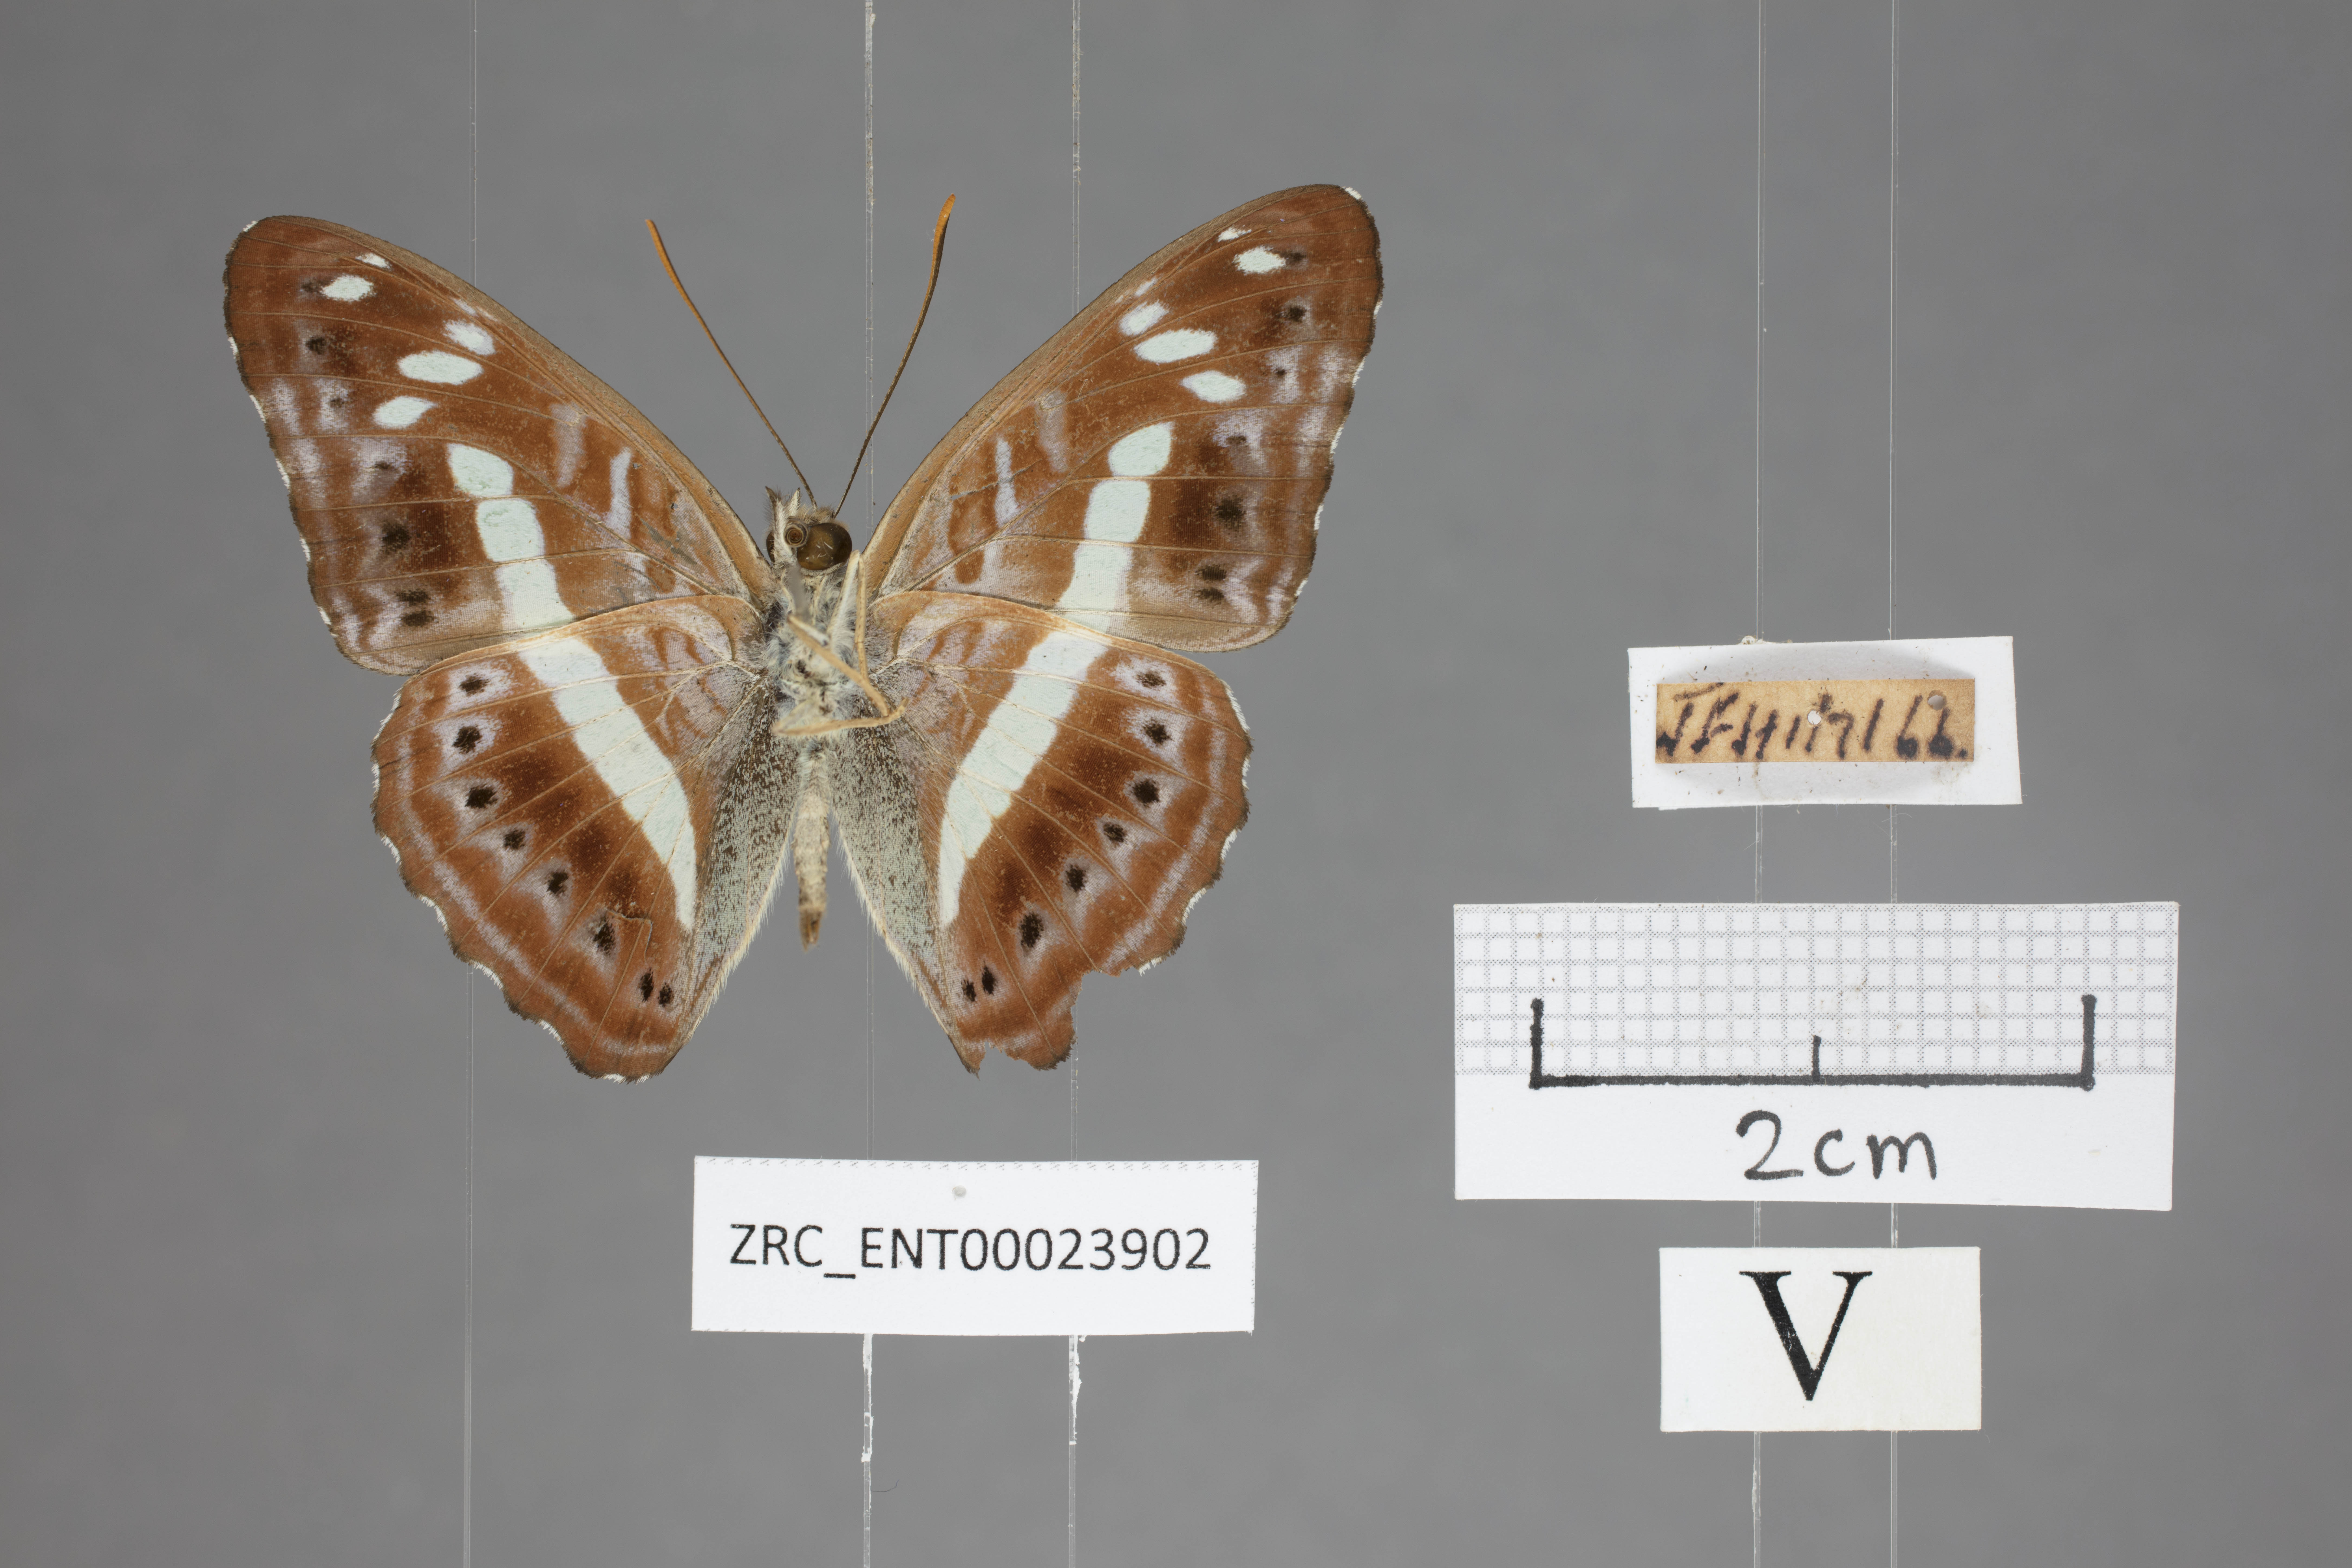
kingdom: Animalia
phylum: Arthropoda
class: Insecta
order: Lepidoptera
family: Nymphalidae
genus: Limenitis
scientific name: Limenitis
